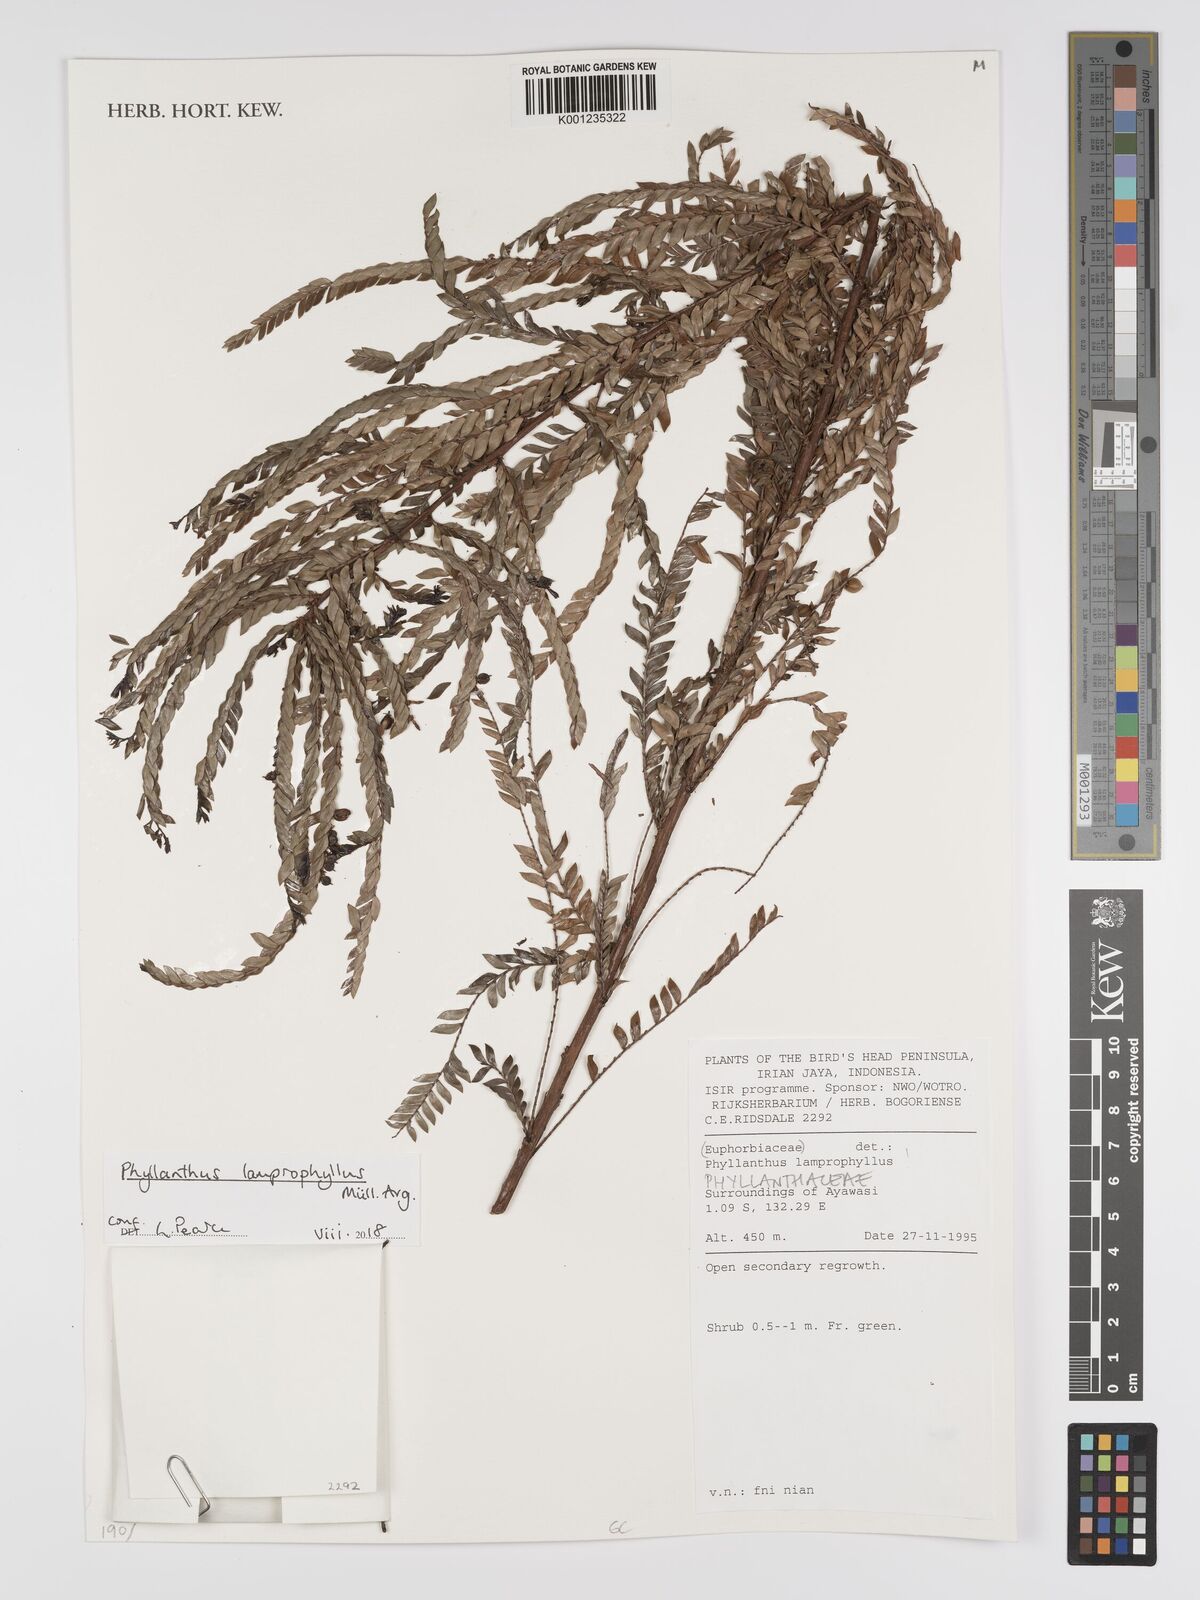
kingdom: Plantae
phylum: Tracheophyta
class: Magnoliopsida
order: Malpighiales
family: Phyllanthaceae
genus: Glochidion
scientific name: Glochidion lamprophyllum
